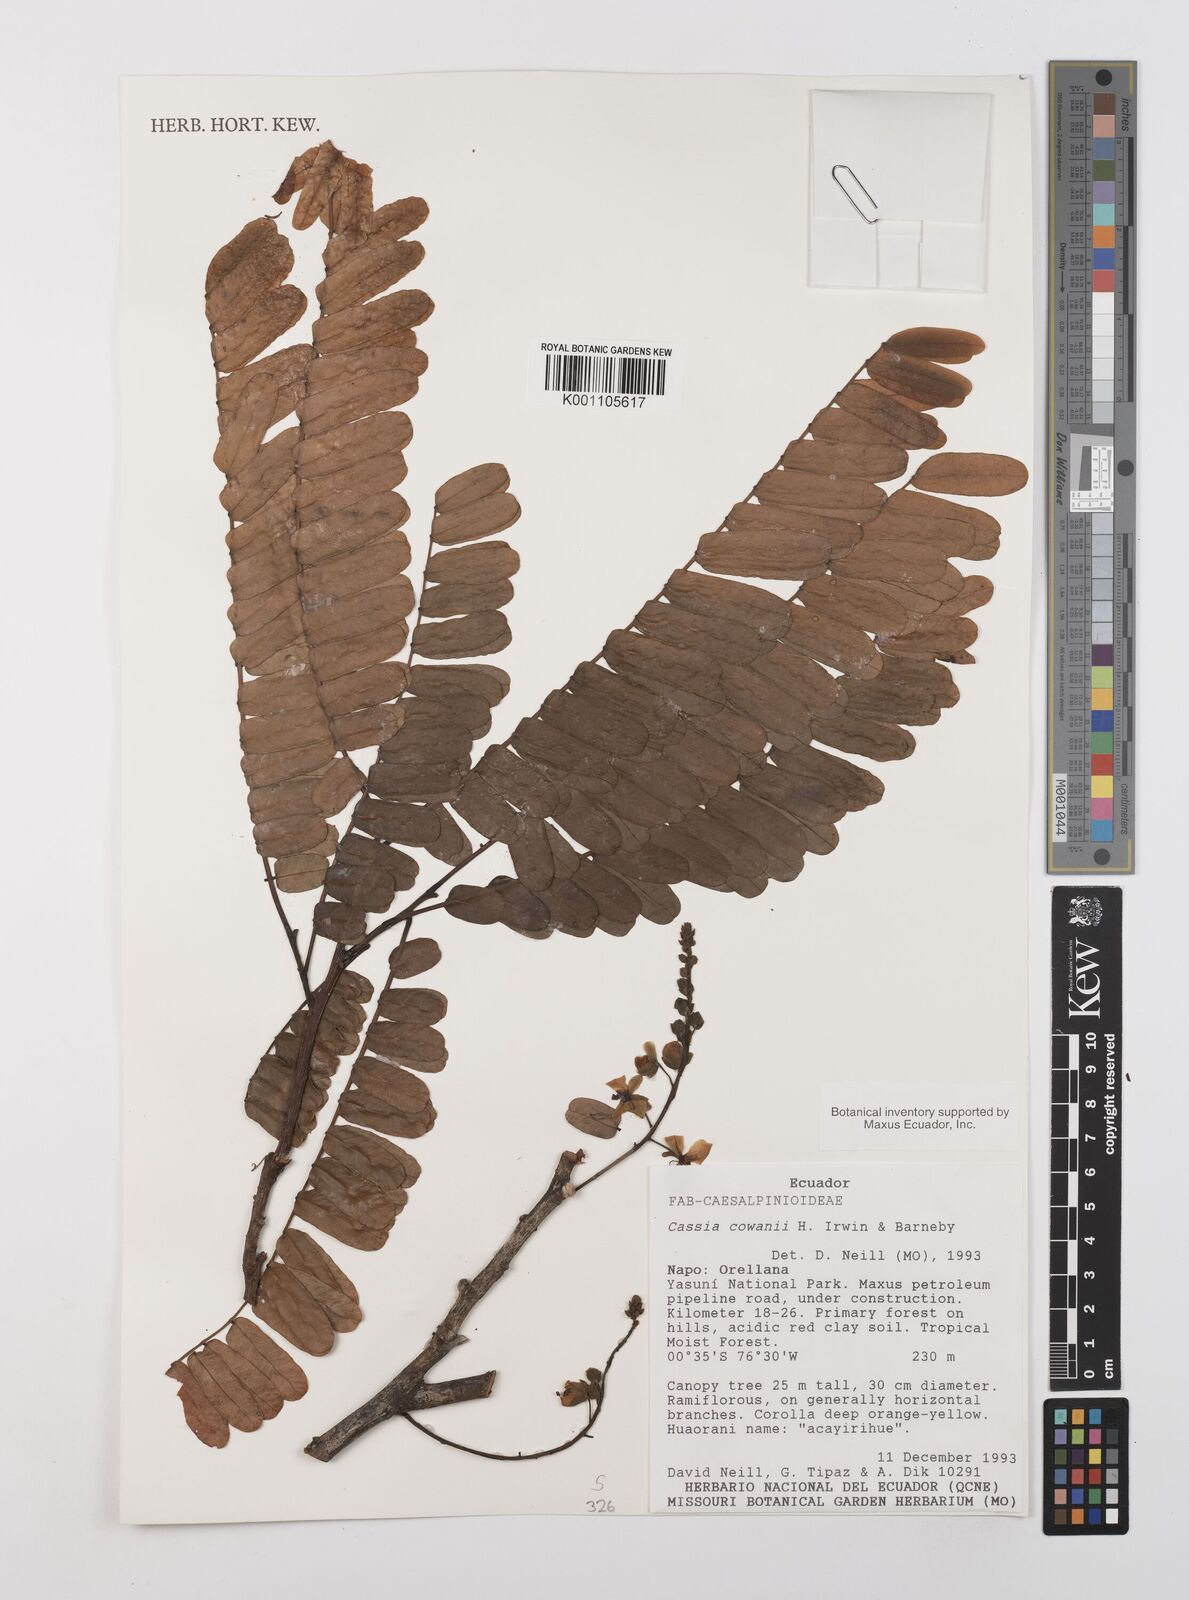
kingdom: Plantae
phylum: Tracheophyta
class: Magnoliopsida
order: Fabales
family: Fabaceae
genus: Cassia
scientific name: Cassia cowanii
